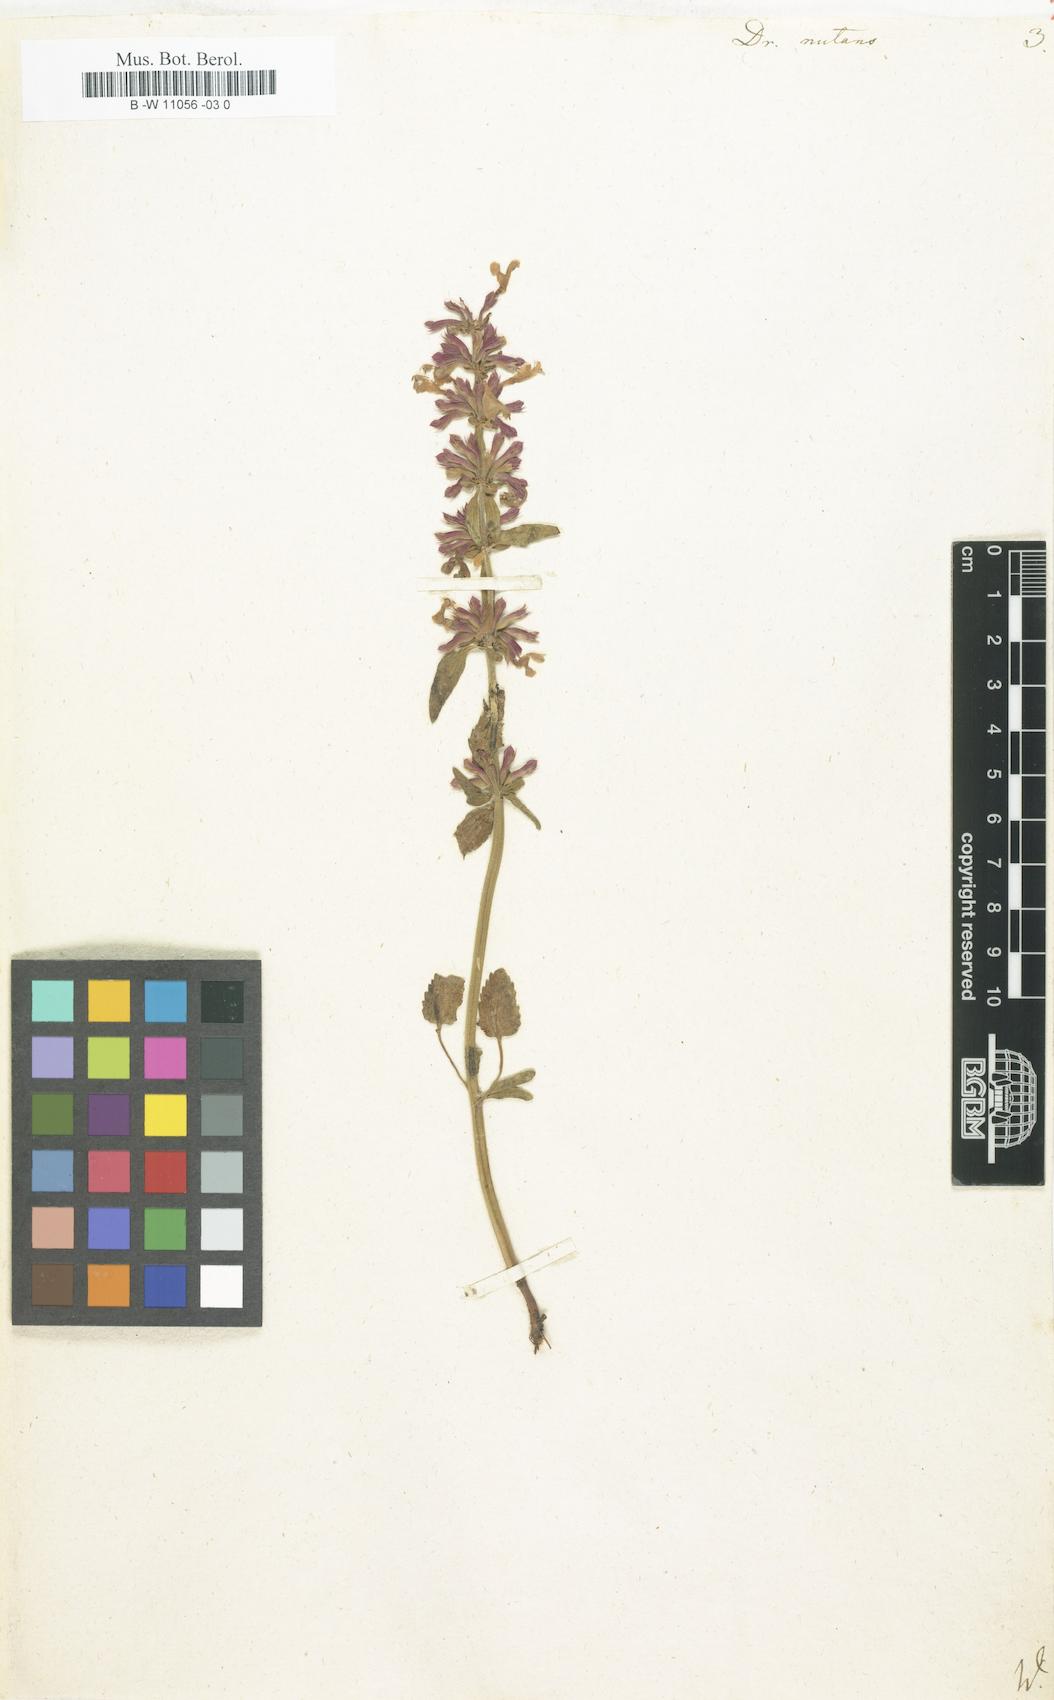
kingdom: Plantae
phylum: Tracheophyta
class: Magnoliopsida
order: Lamiales
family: Lamiaceae
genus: Dracocephalum
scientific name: Dracocephalum nutans
